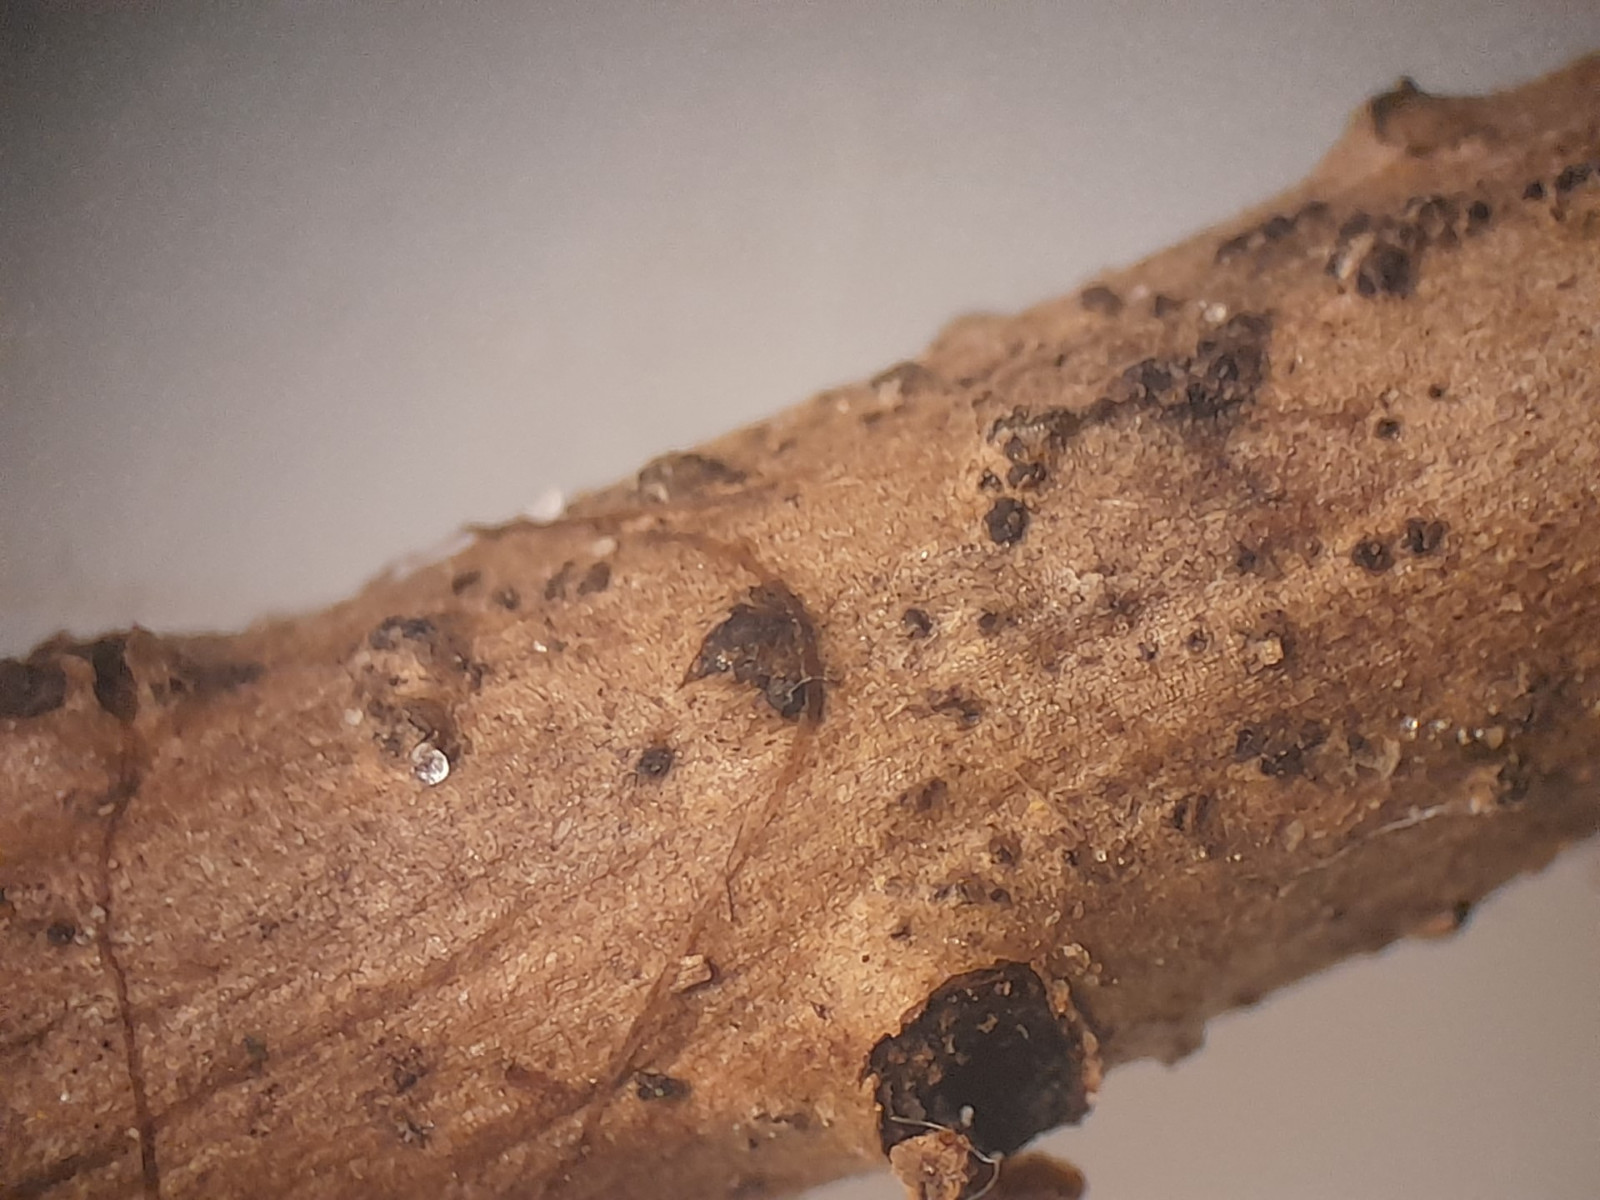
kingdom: Fungi
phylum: Ascomycota
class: Sordariomycetes
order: Diaporthales
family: Diaporthaceae
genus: Diaporthe
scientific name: Diaporthe neoviticola
